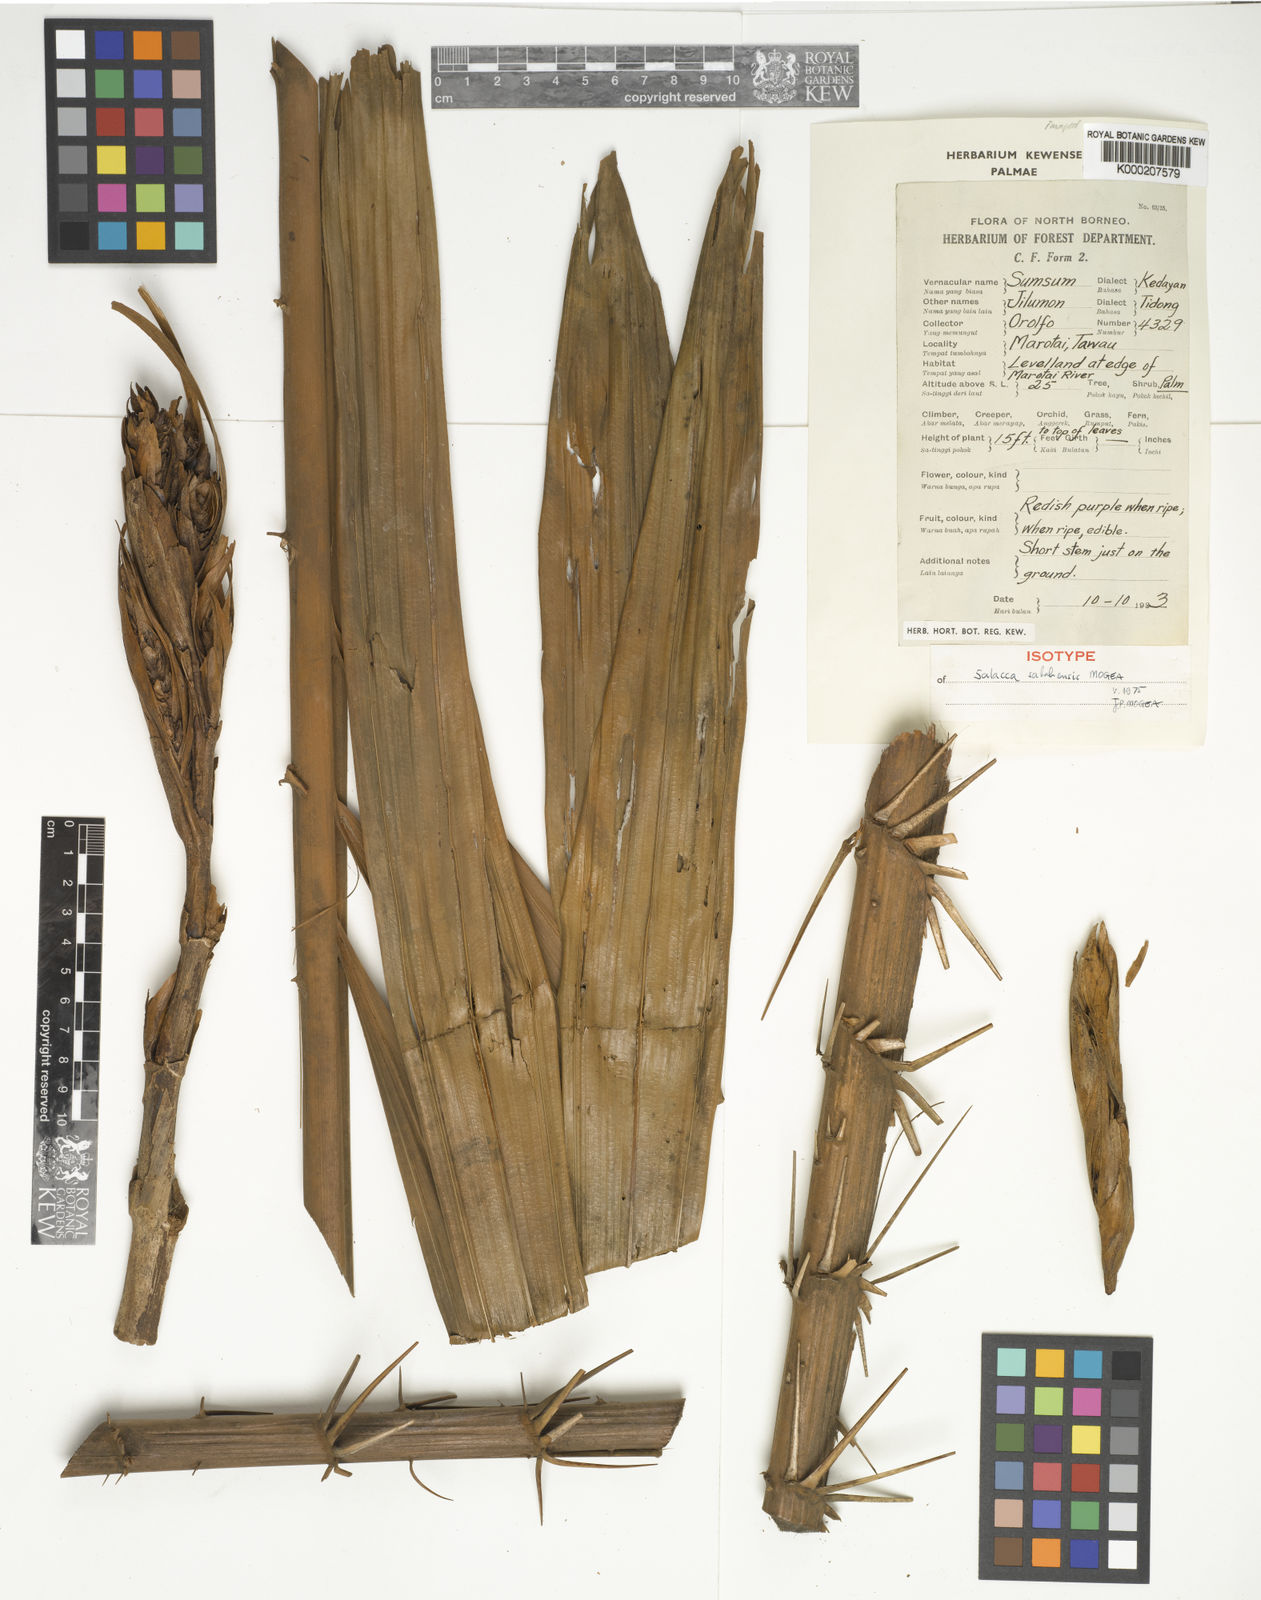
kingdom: Plantae
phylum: Tracheophyta
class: Liliopsida
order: Arecales
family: Arecaceae
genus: Salacca
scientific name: Salacca
